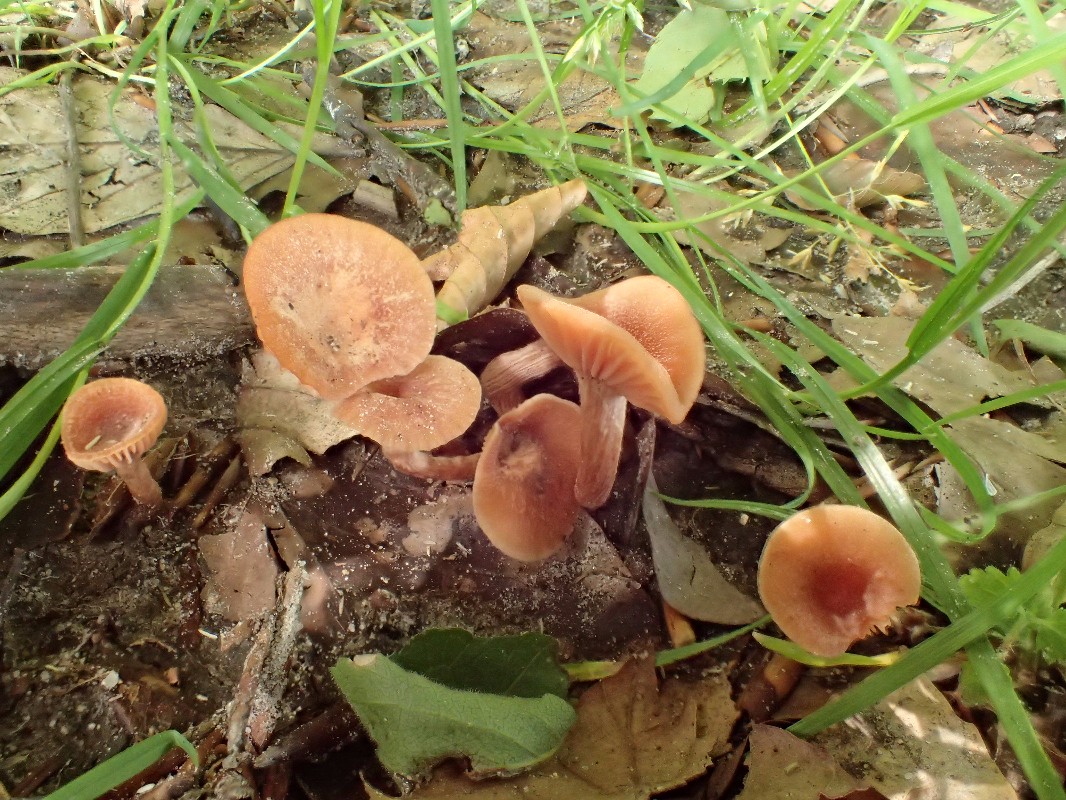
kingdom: Fungi
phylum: Basidiomycota
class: Agaricomycetes
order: Agaricales
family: Hydnangiaceae
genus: Laccaria
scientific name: Laccaria laccata
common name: rød ametysthat
